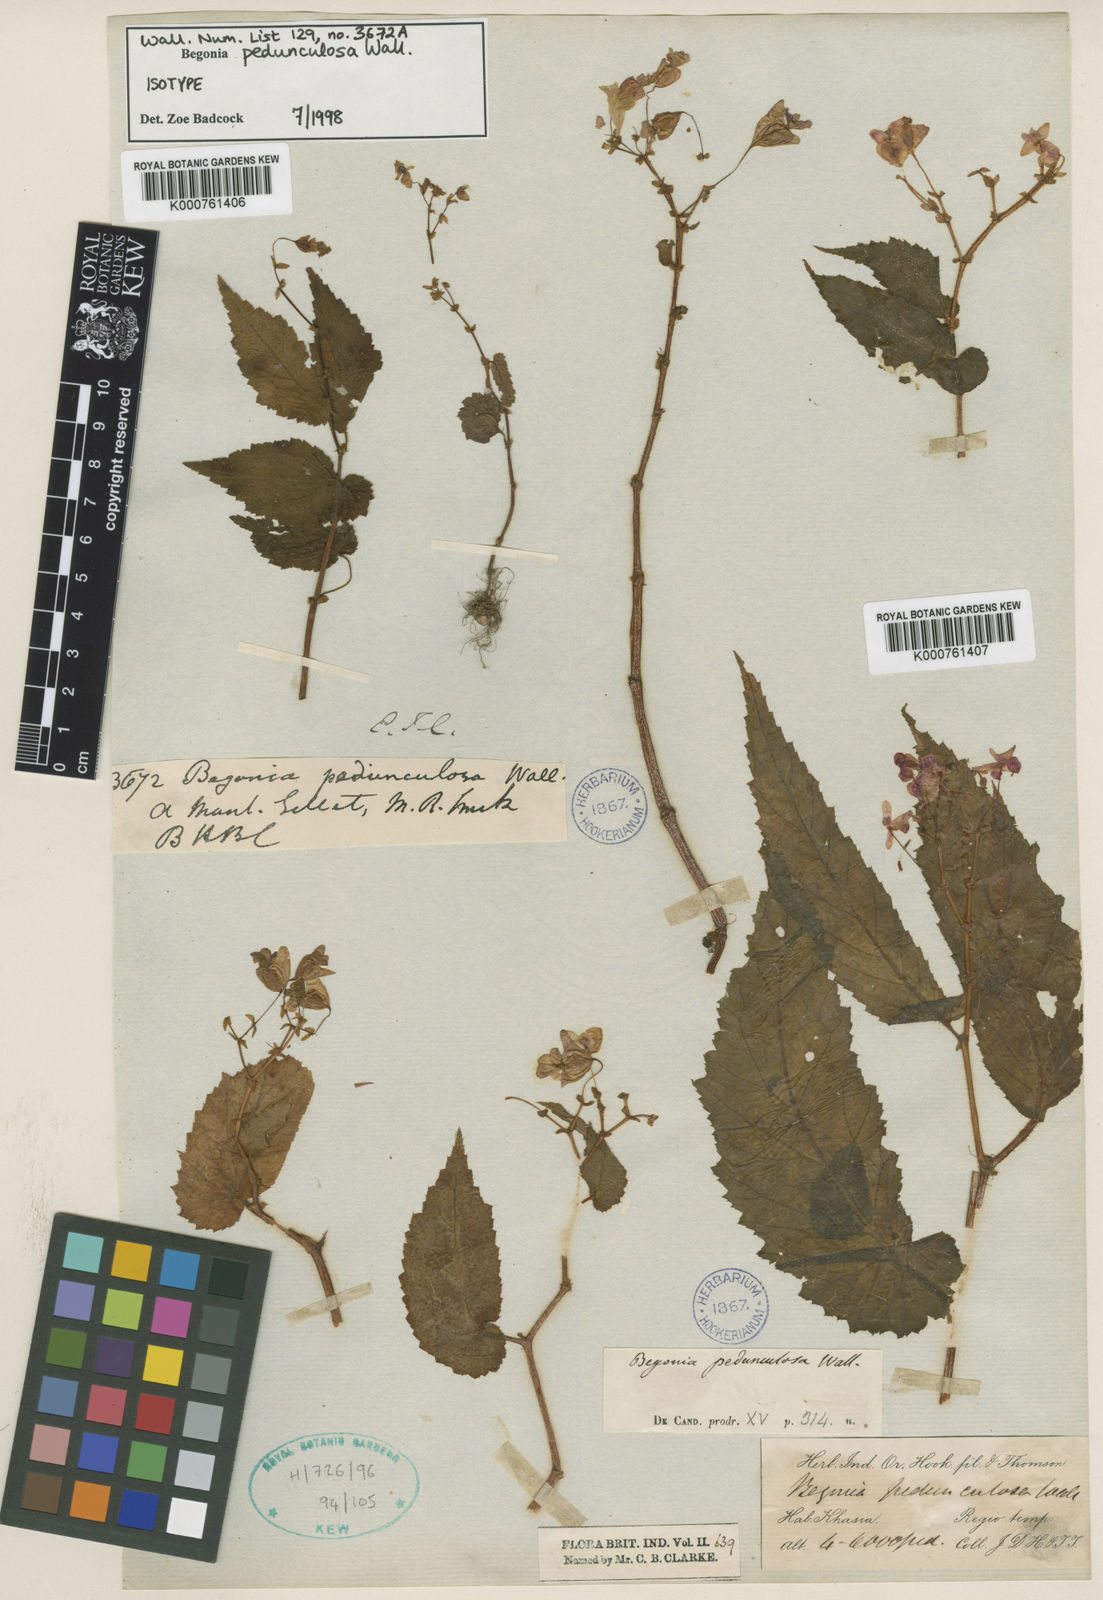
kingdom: Plantae
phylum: Tracheophyta
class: Magnoliopsida
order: Cucurbitales
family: Begoniaceae
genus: Begonia
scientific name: Begonia pedunculosa
